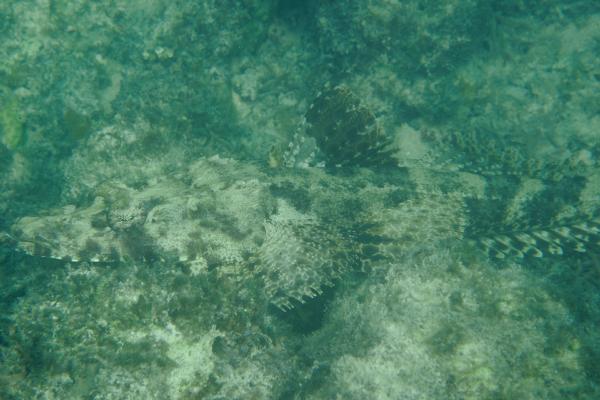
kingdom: Animalia
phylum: Chordata
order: Scorpaeniformes
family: Platycephalidae
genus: Papilloculiceps
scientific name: Papilloculiceps longiceps
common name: Tentacled flathead
